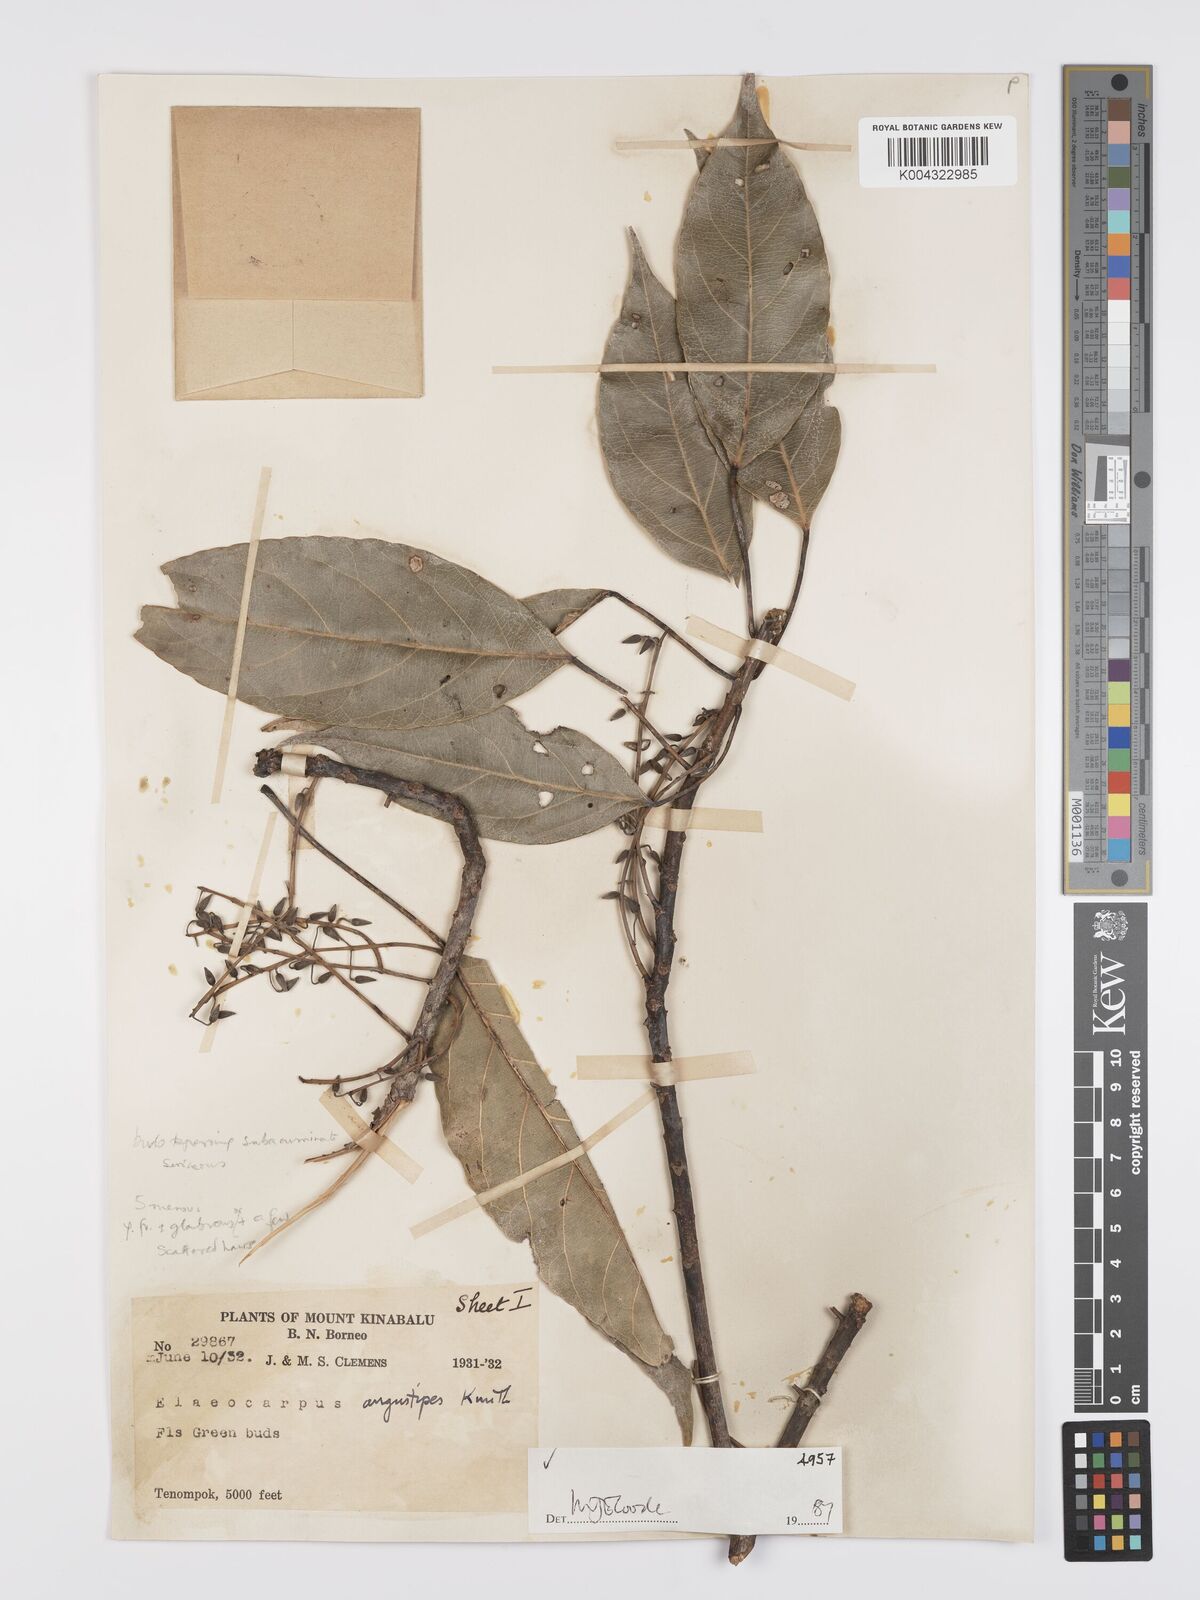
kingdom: Plantae
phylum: Tracheophyta
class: Magnoliopsida
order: Oxalidales
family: Elaeocarpaceae
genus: Elaeocarpus
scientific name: Elaeocarpus angustipes
